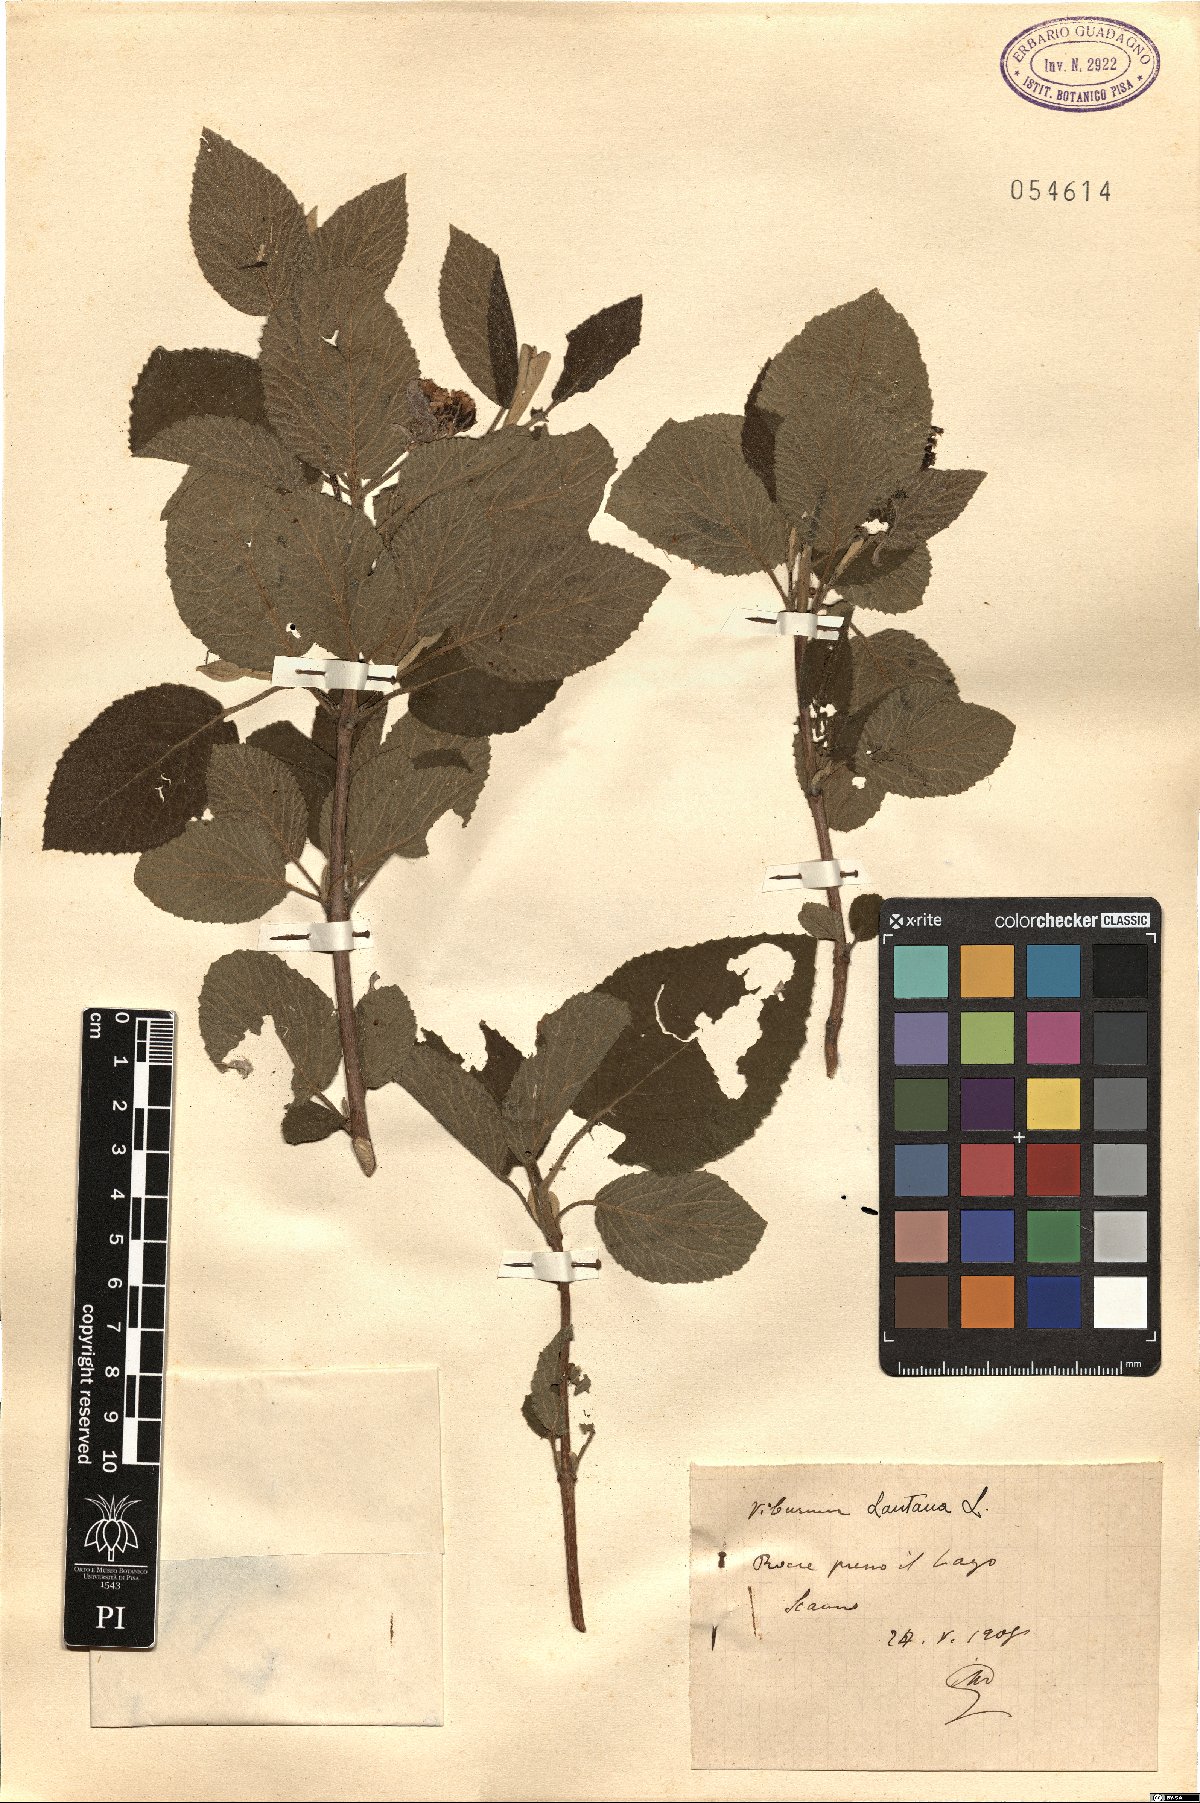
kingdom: Plantae
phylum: Tracheophyta
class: Magnoliopsida
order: Dipsacales
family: Viburnaceae
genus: Viburnum
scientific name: Viburnum lantana
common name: Wayfaring tree
